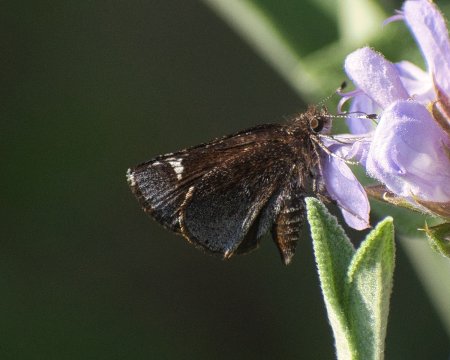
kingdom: Animalia
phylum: Arthropoda
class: Insecta
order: Lepidoptera
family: Hesperiidae
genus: Mastor
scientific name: Mastor vialis
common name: Common Roadside-Skipper
